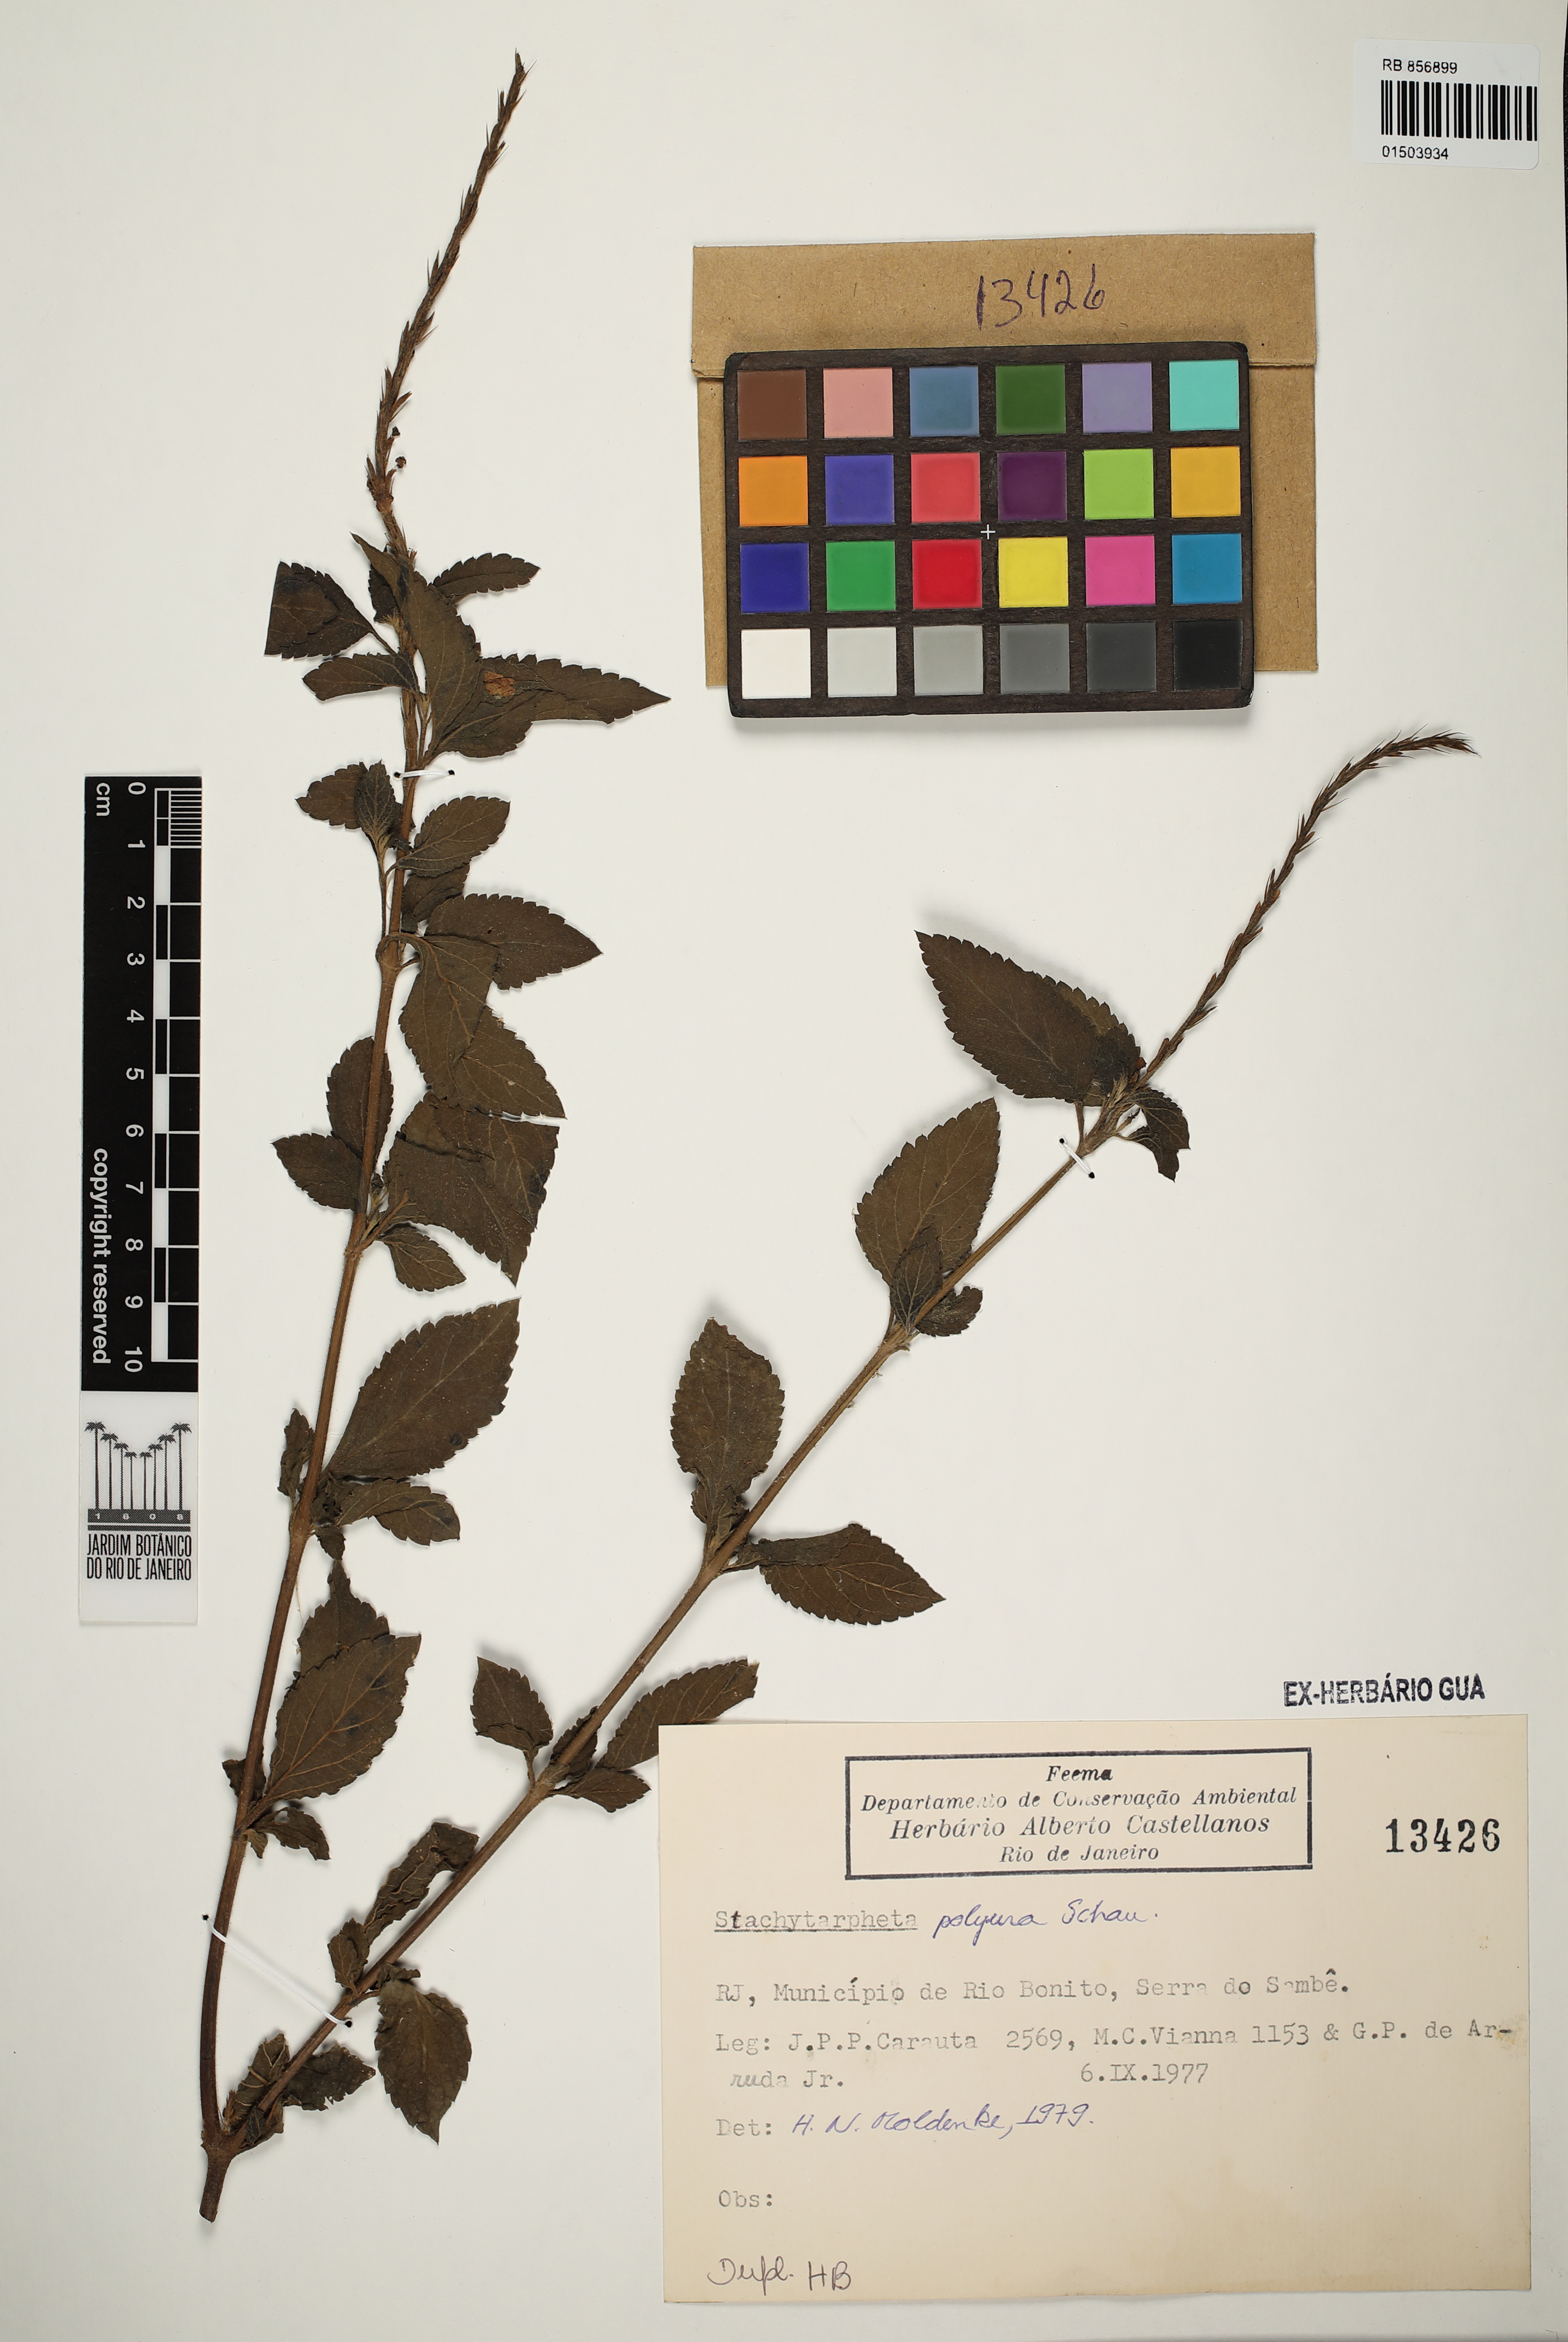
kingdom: Plantae
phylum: Tracheophyta
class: Magnoliopsida
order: Lamiales
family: Verbenaceae
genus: Stachytarpheta
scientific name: Stachytarpheta polyura
